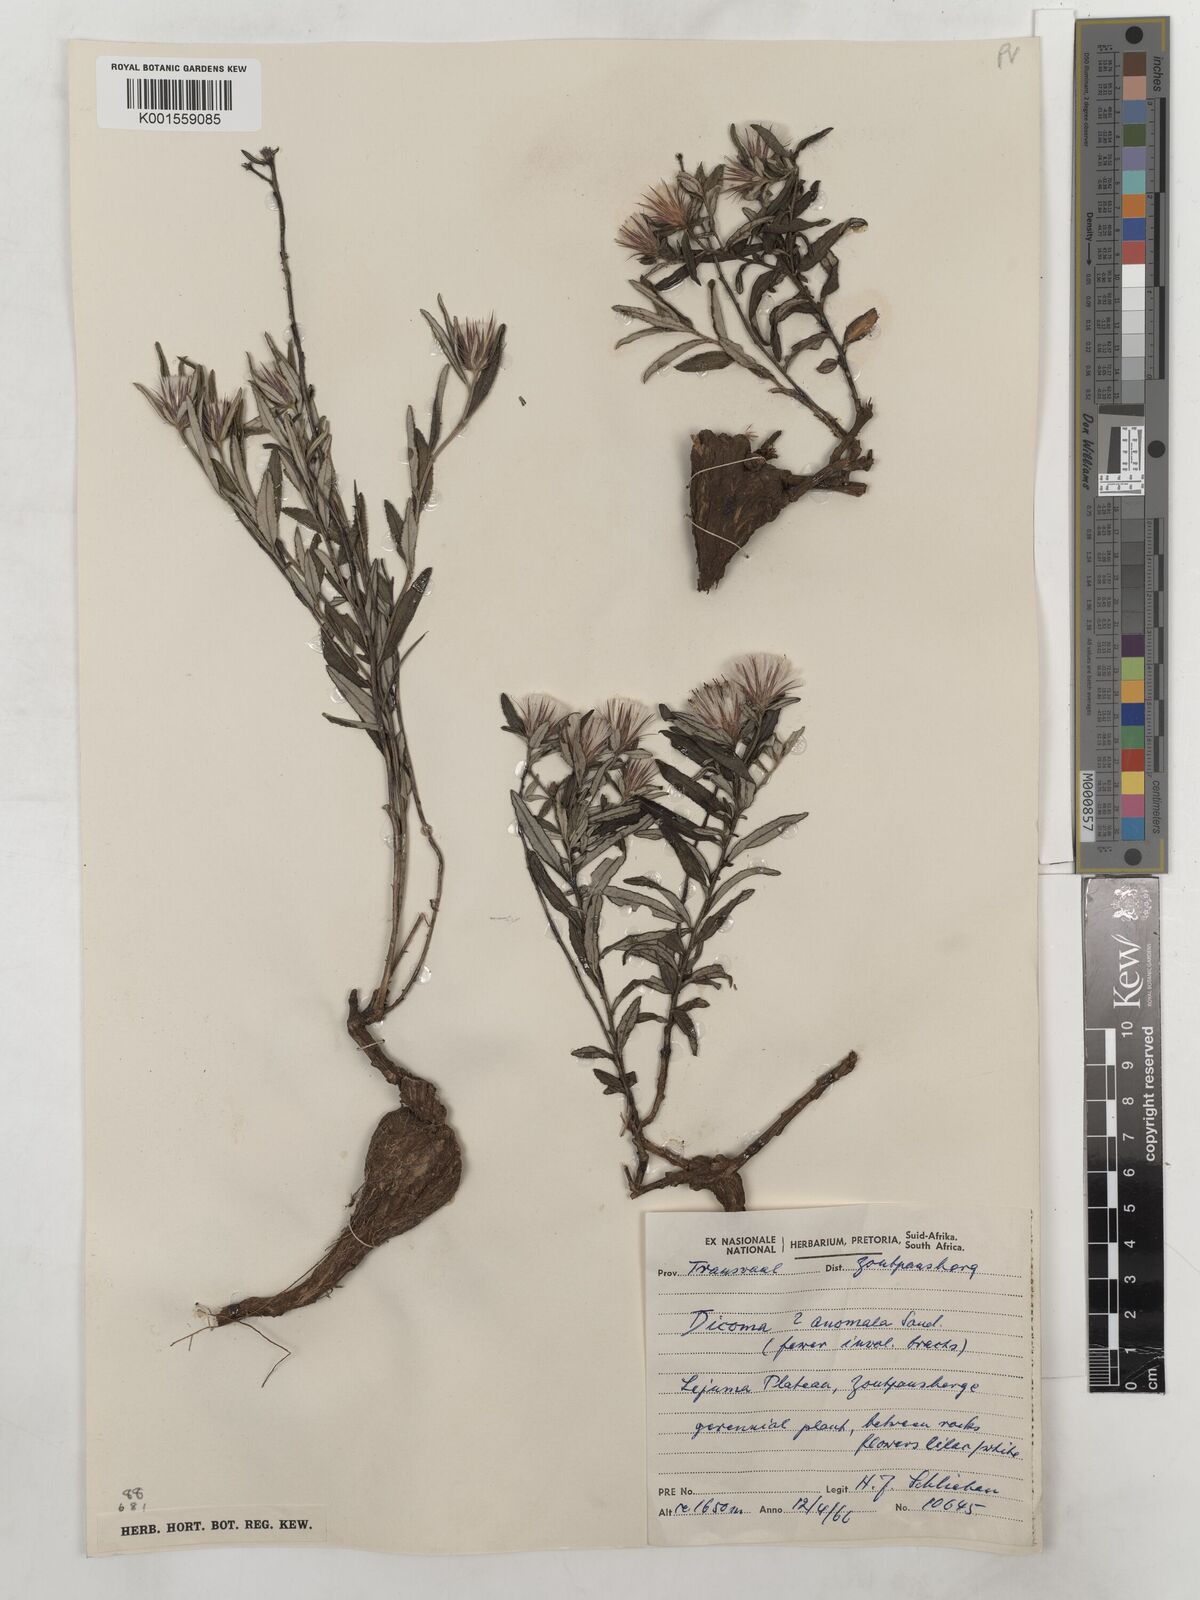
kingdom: Plantae
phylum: Tracheophyta
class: Magnoliopsida
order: Asterales
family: Asteraceae
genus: Dicoma
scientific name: Dicoma anomala
